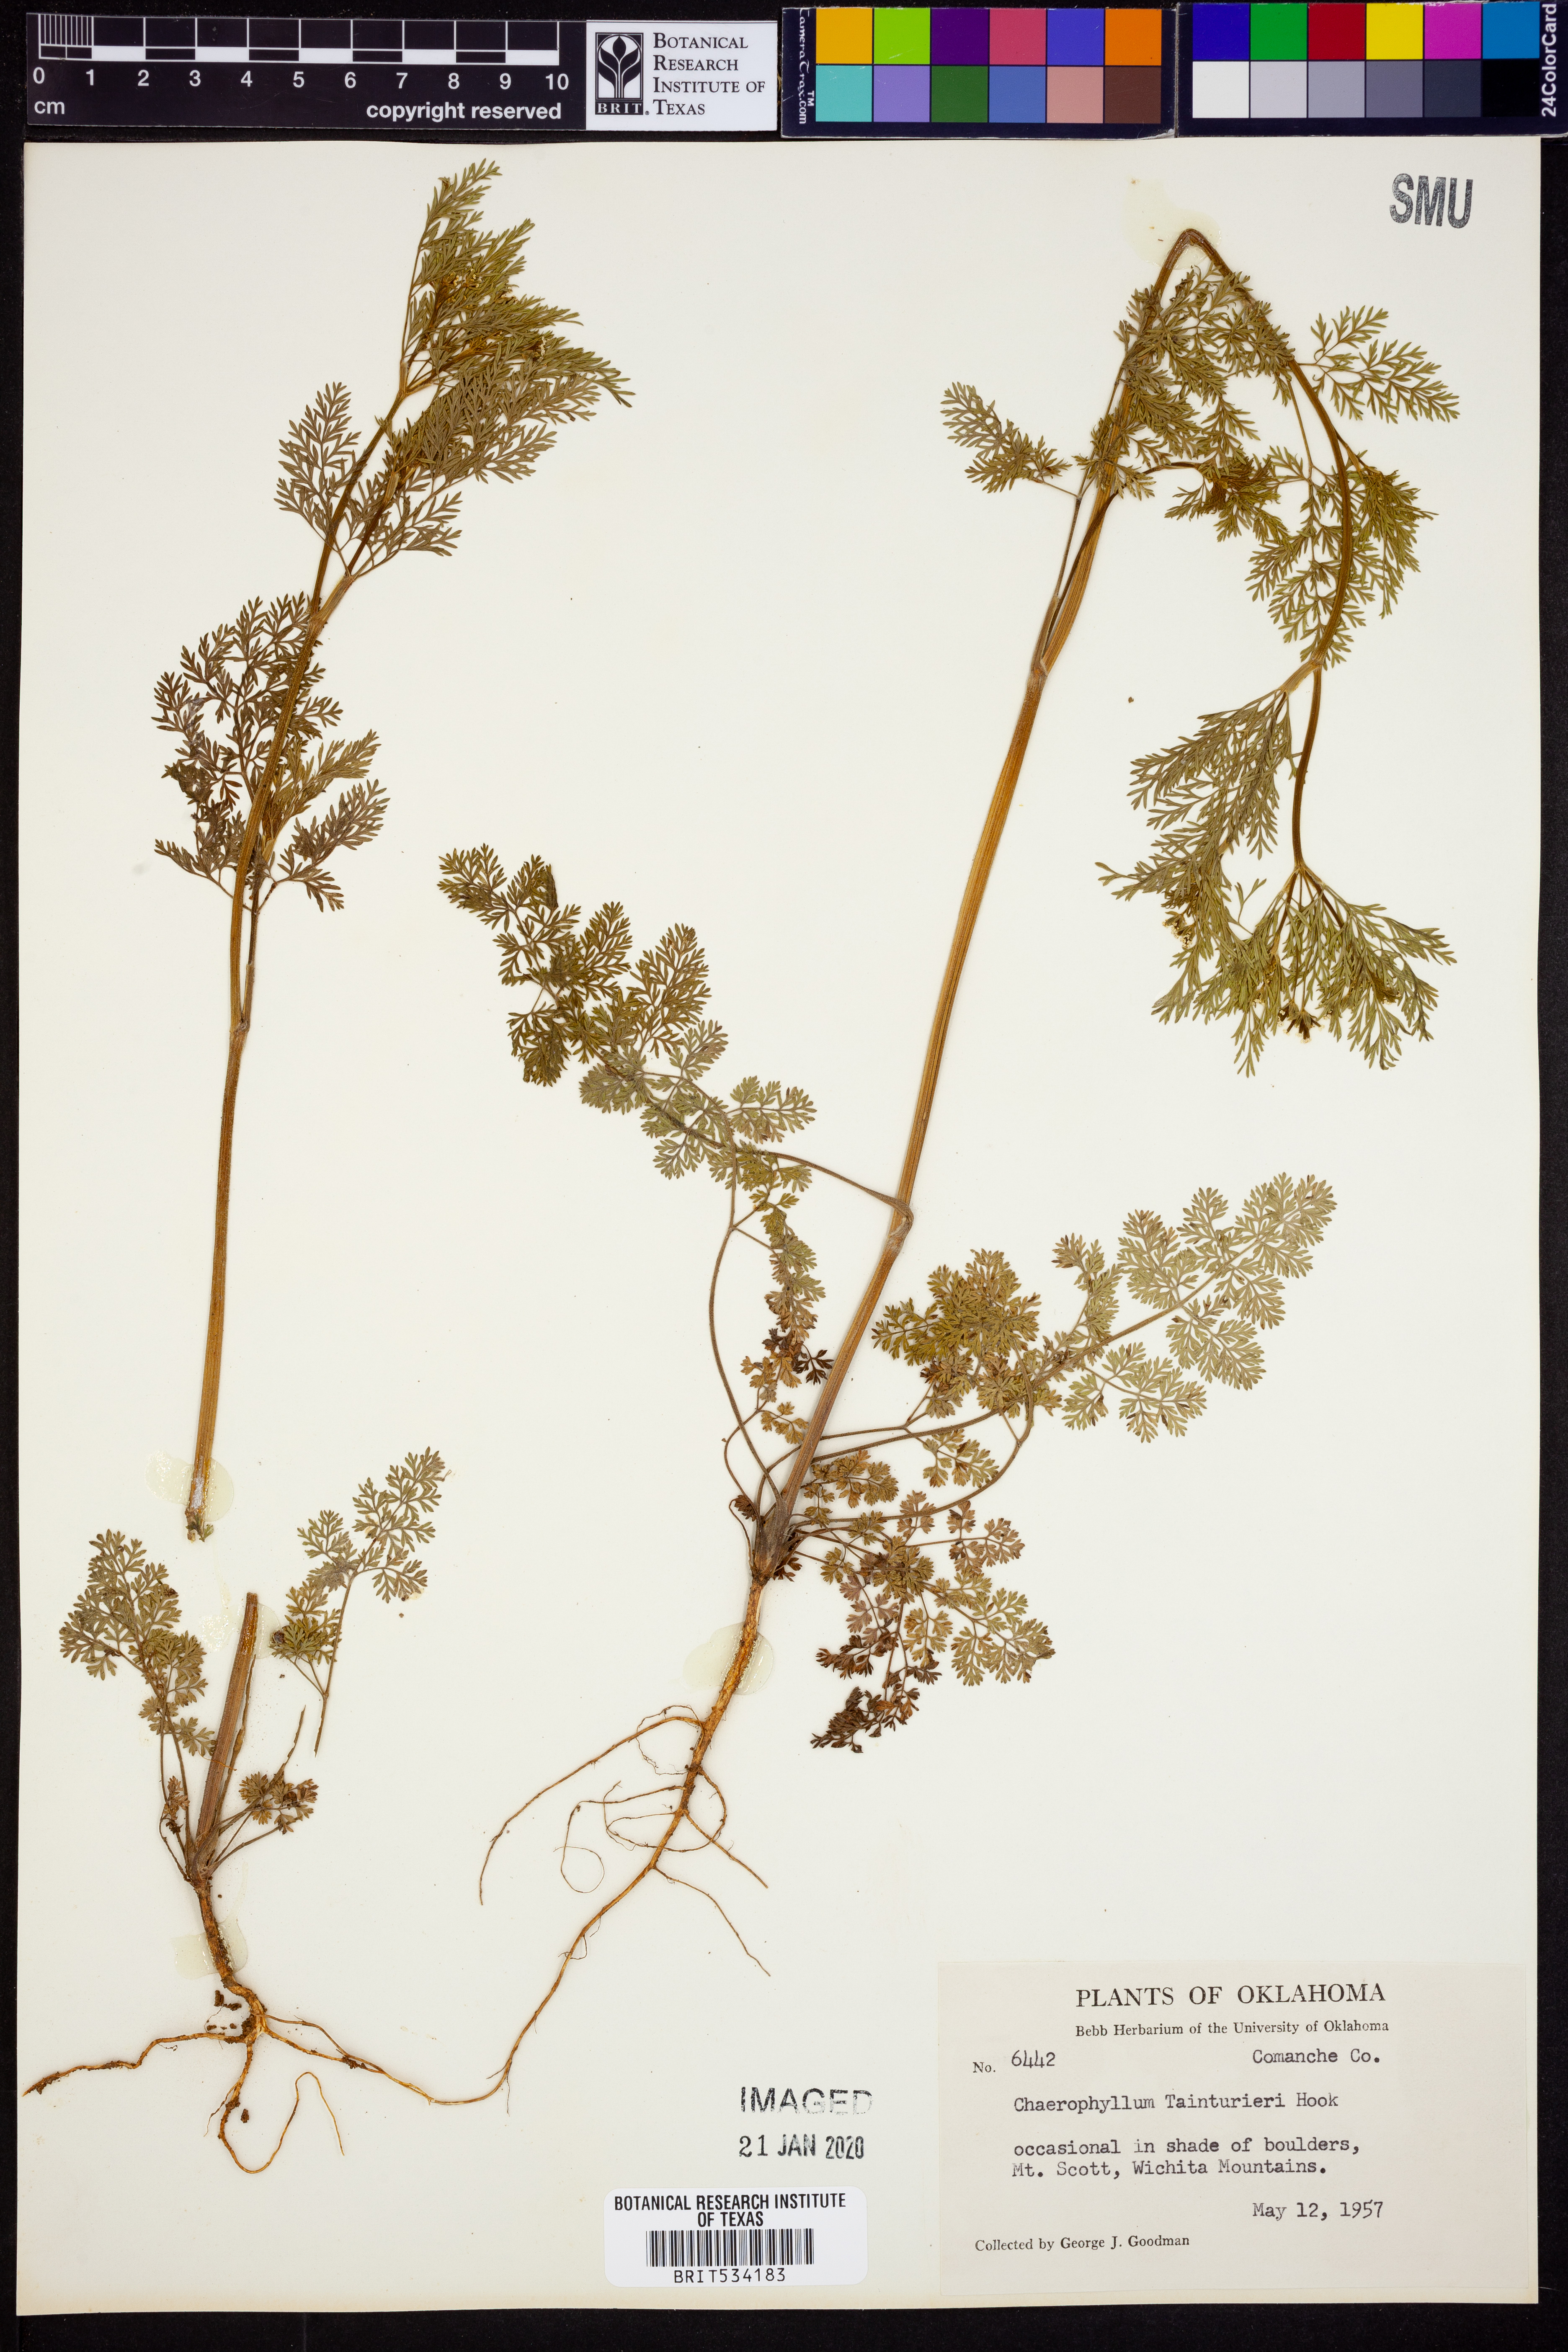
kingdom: Plantae
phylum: Tracheophyta
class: Magnoliopsida
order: Apiales
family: Apiaceae
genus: Chaerophyllum
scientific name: Chaerophyllum tainturieri
